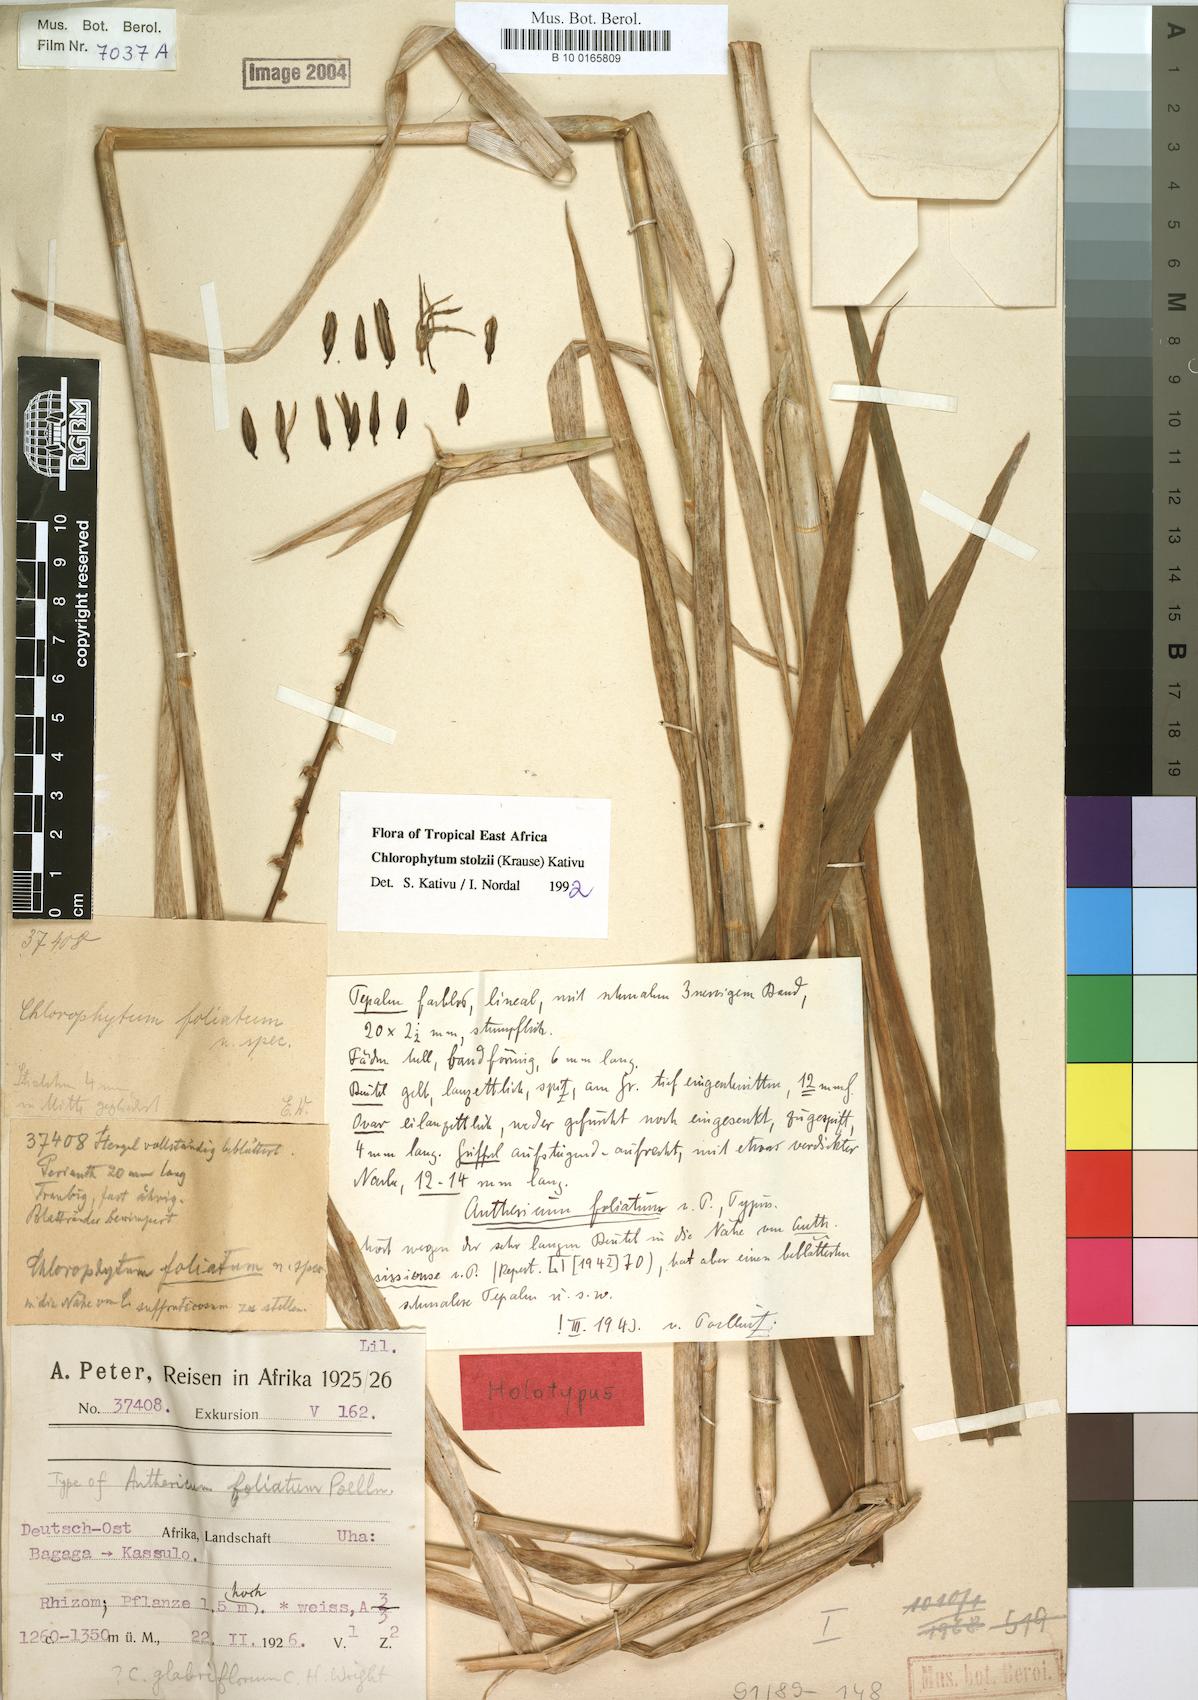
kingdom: Plantae
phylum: Tracheophyta
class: Liliopsida
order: Asparagales
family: Asparagaceae
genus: Chlorophytum
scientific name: Chlorophytum stolzii
